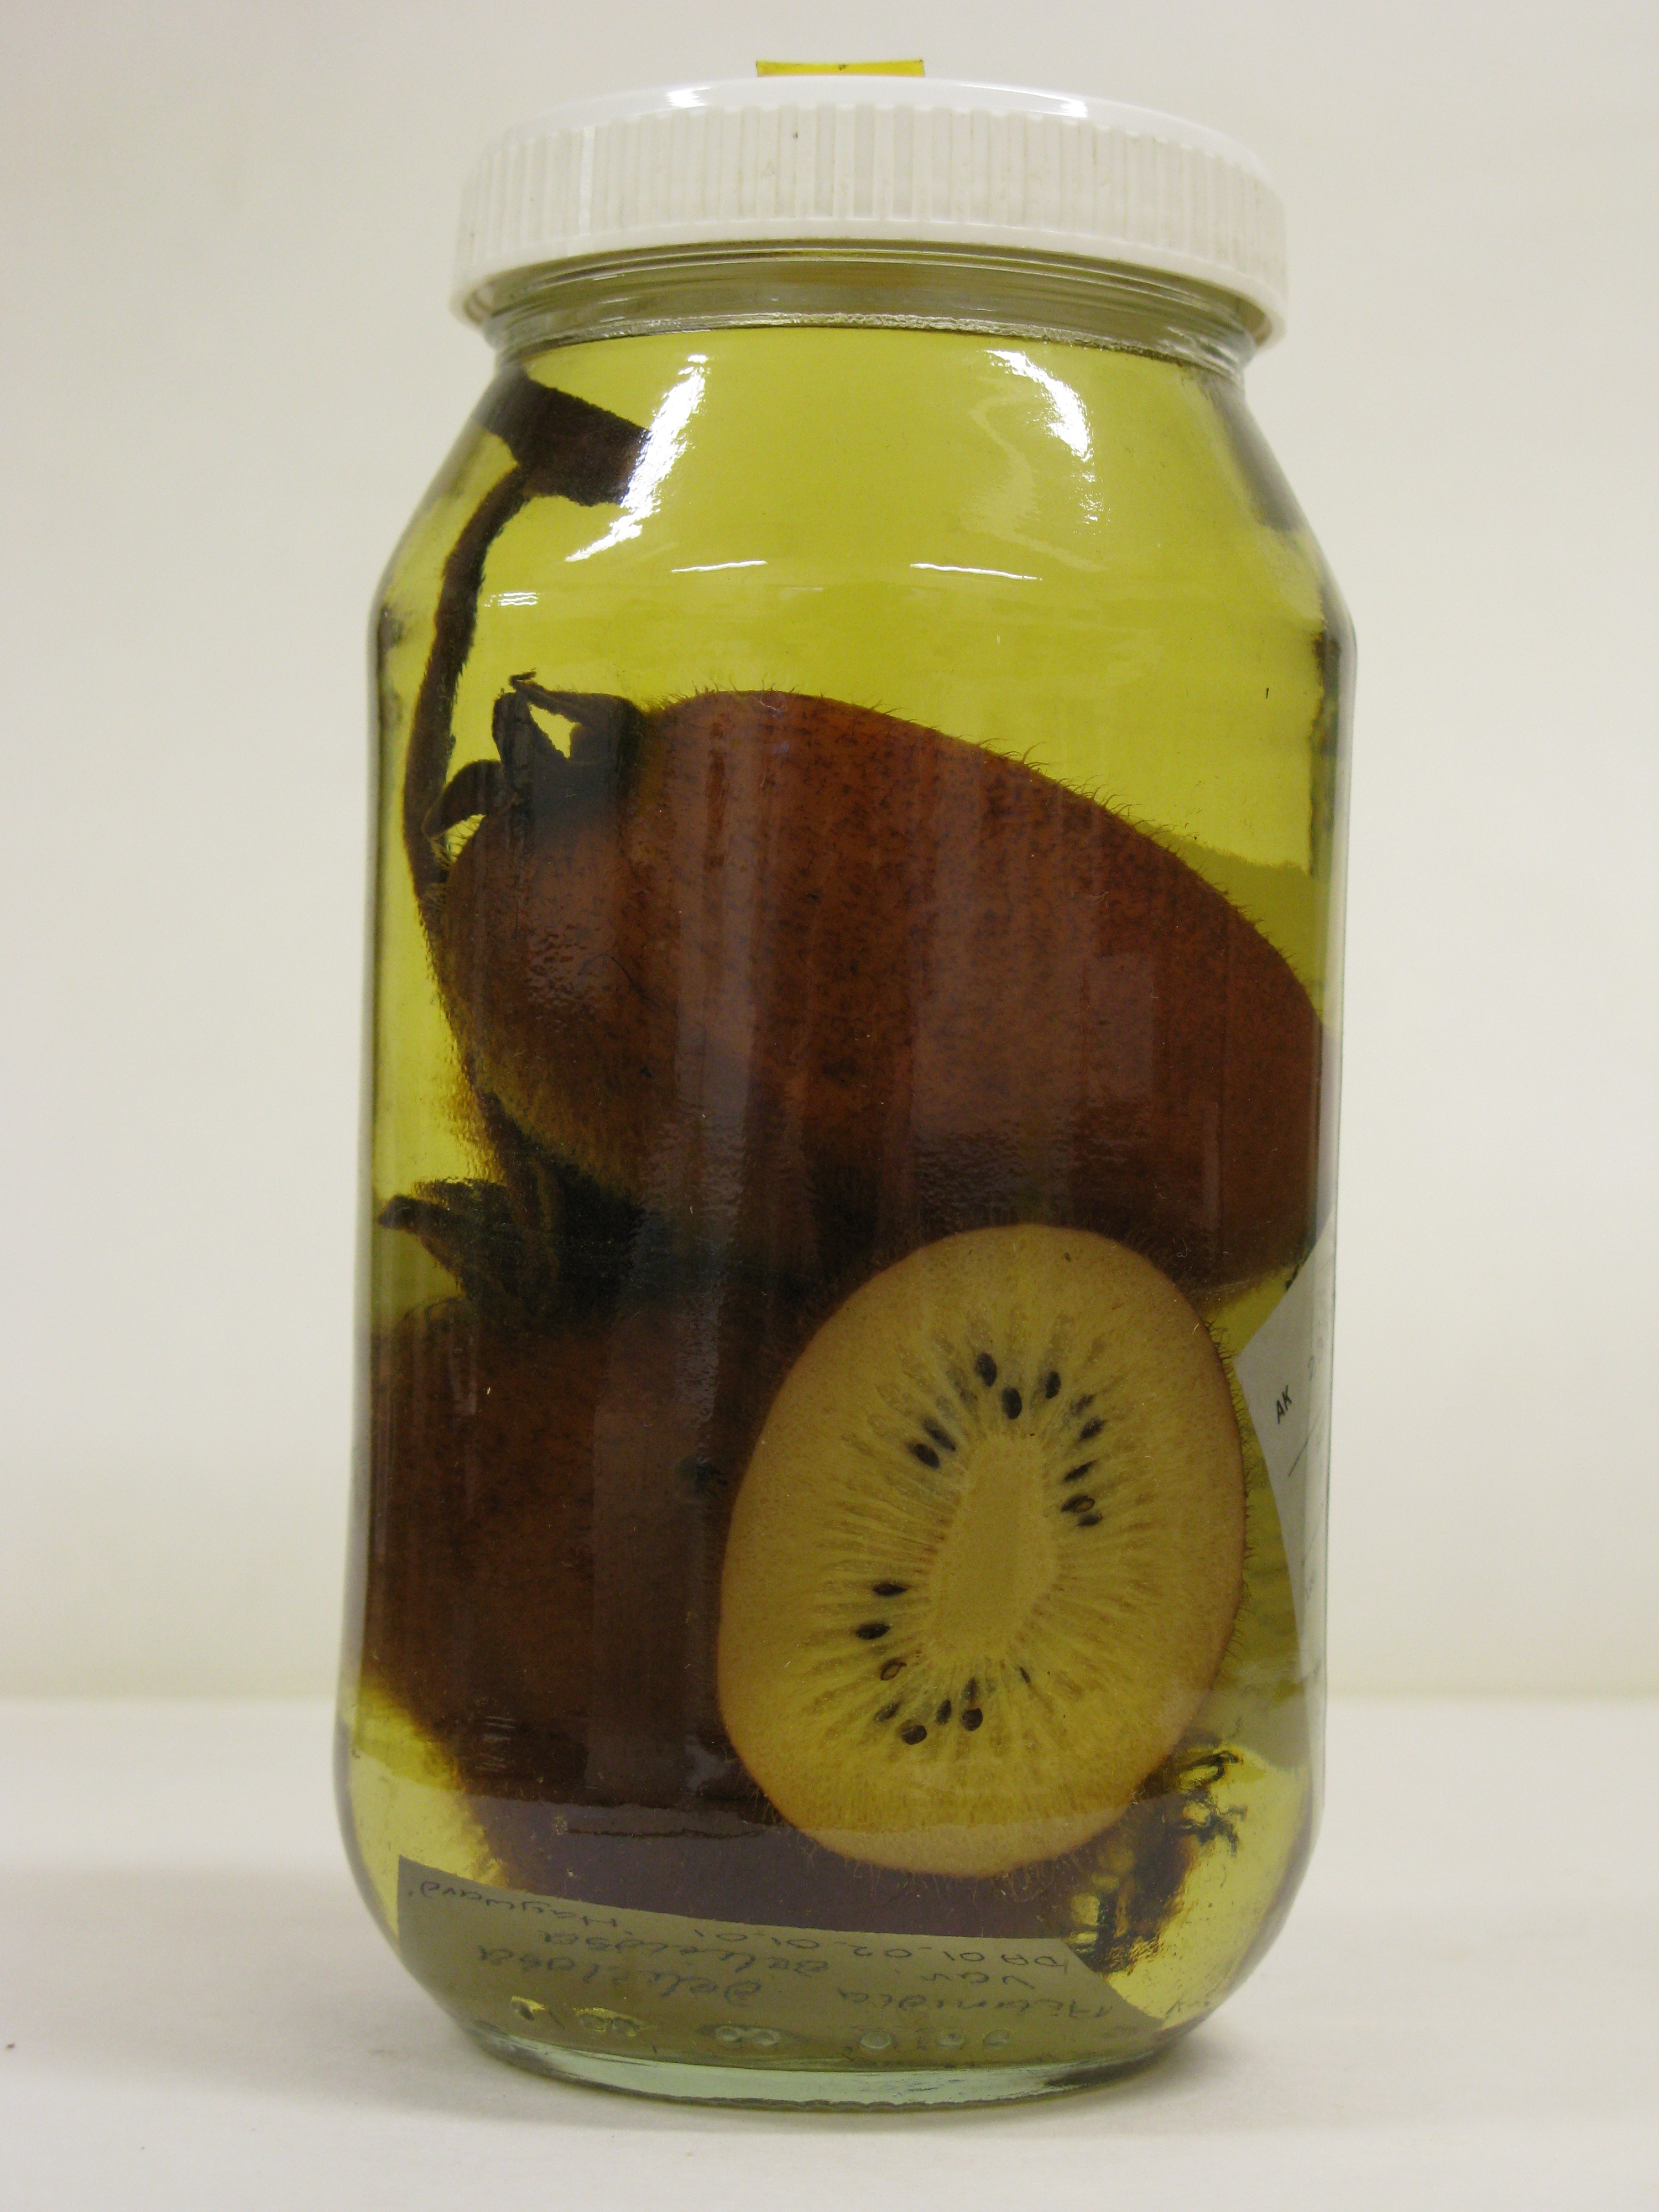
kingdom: Plantae
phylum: Tracheophyta
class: Magnoliopsida
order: Ericales
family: Actinidiaceae
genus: Actinidia
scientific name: Actinidia chinensis
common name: Kiwi
